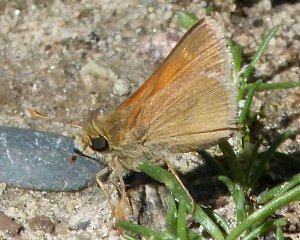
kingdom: Animalia
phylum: Arthropoda
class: Insecta
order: Lepidoptera
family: Hesperiidae
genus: Ochlodes
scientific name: Ochlodes sylvanoides
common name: Woodland Skipper
